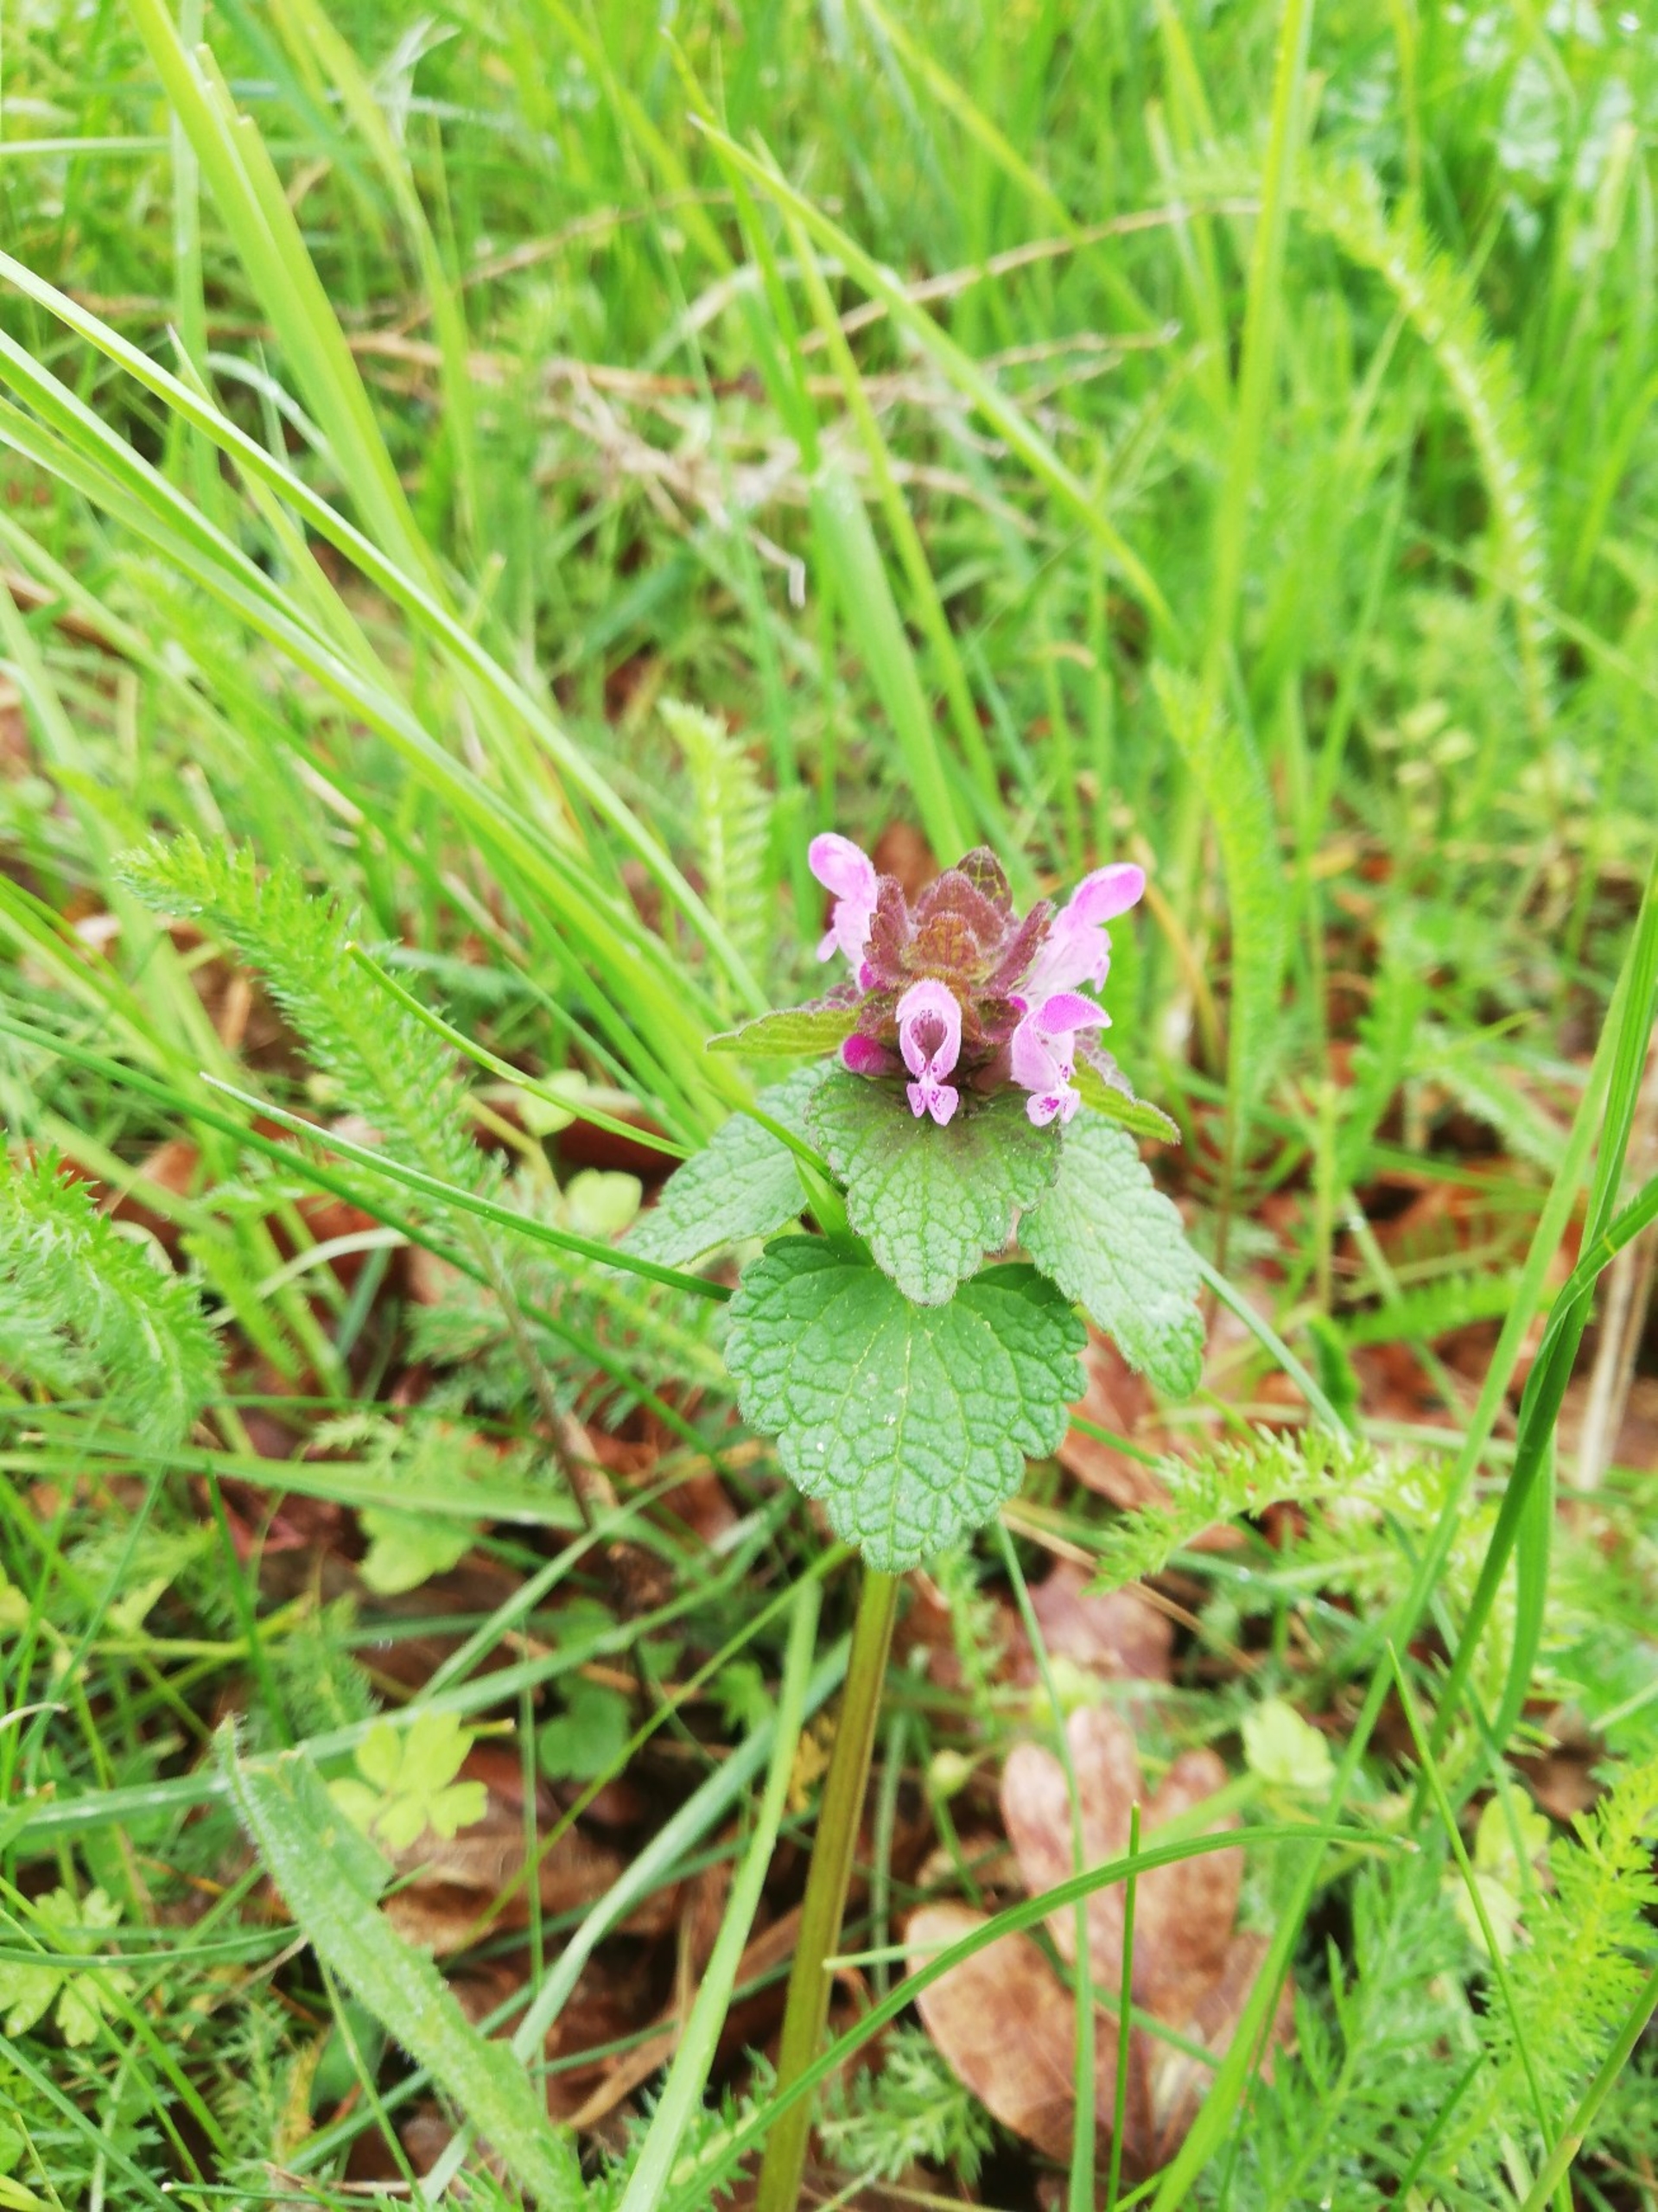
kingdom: Plantae
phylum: Tracheophyta
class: Magnoliopsida
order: Lamiales
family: Lamiaceae
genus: Lamium
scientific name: Lamium purpureum
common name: Rød tvetand
